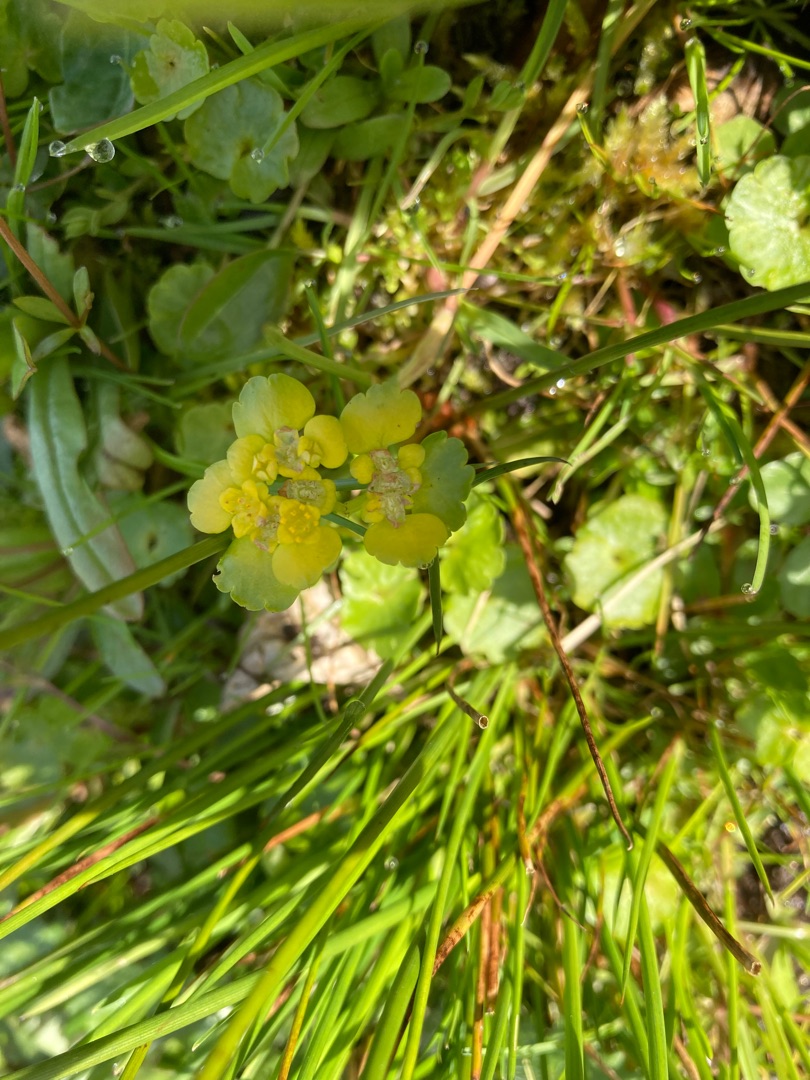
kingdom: Plantae
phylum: Tracheophyta
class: Magnoliopsida
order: Saxifragales
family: Saxifragaceae
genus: Chrysosplenium
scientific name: Chrysosplenium alternifolium
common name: Almindelig milturt
